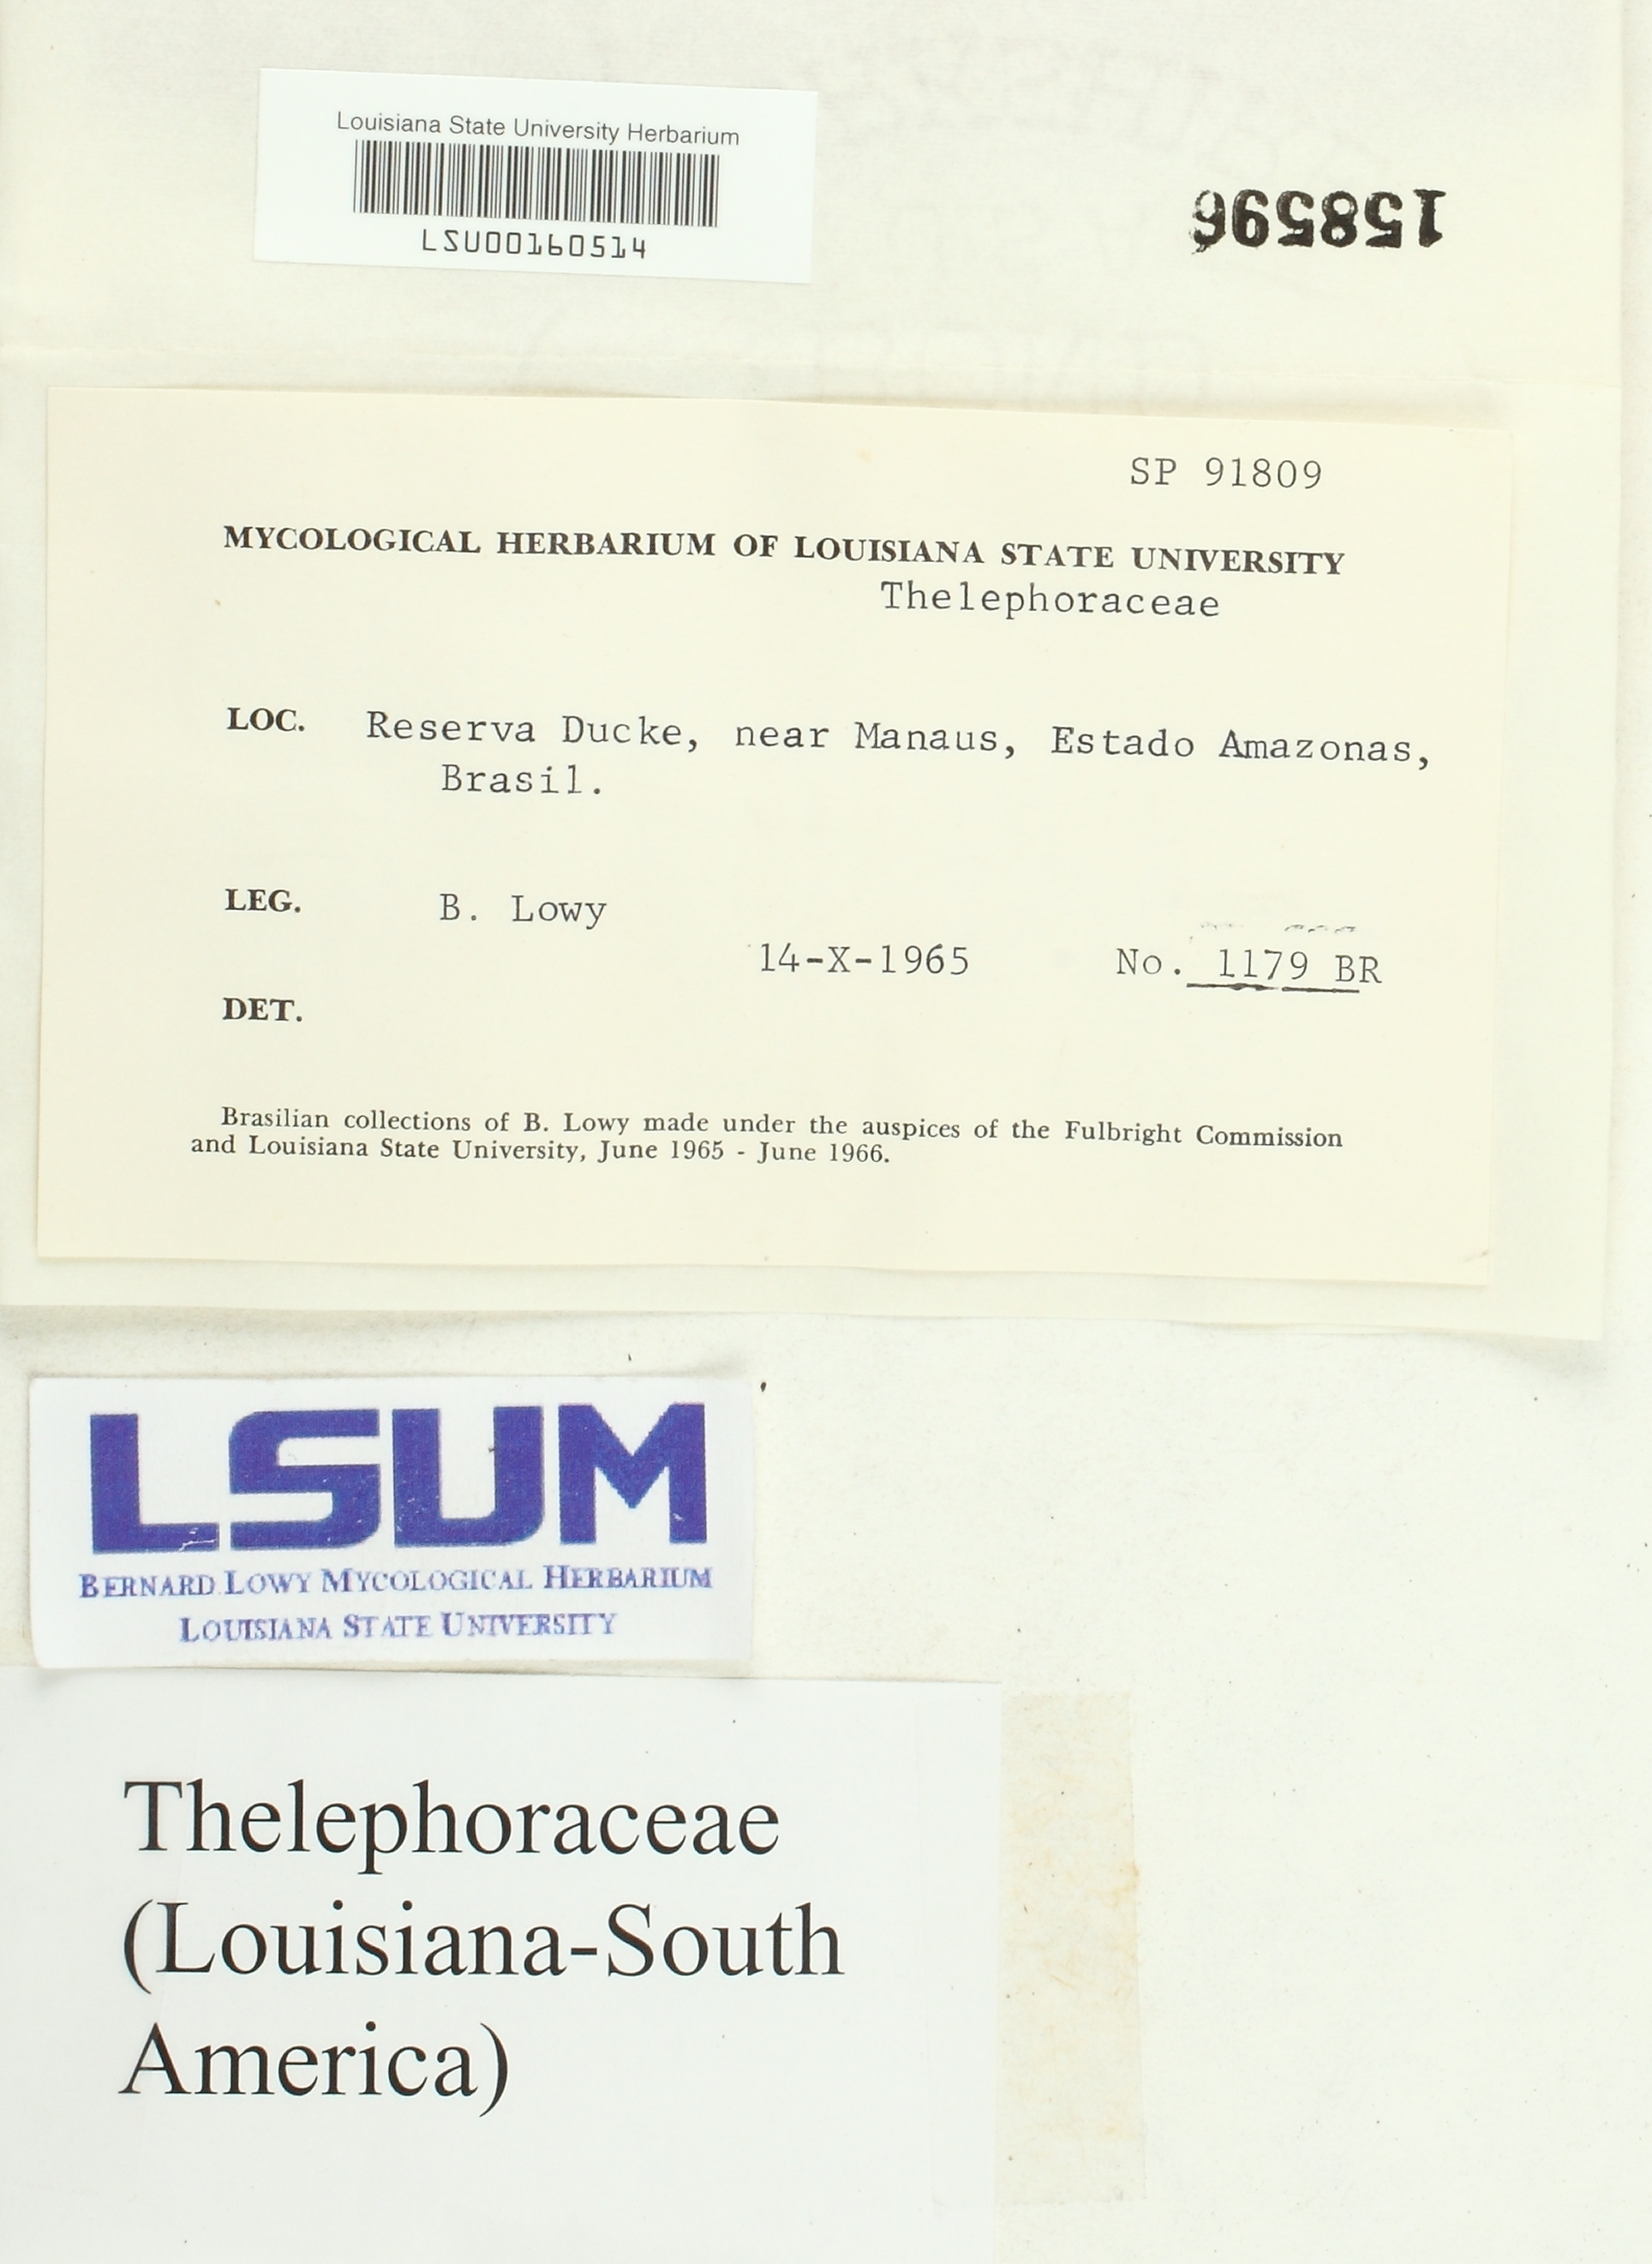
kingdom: Fungi
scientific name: Fungi
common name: Fungi
